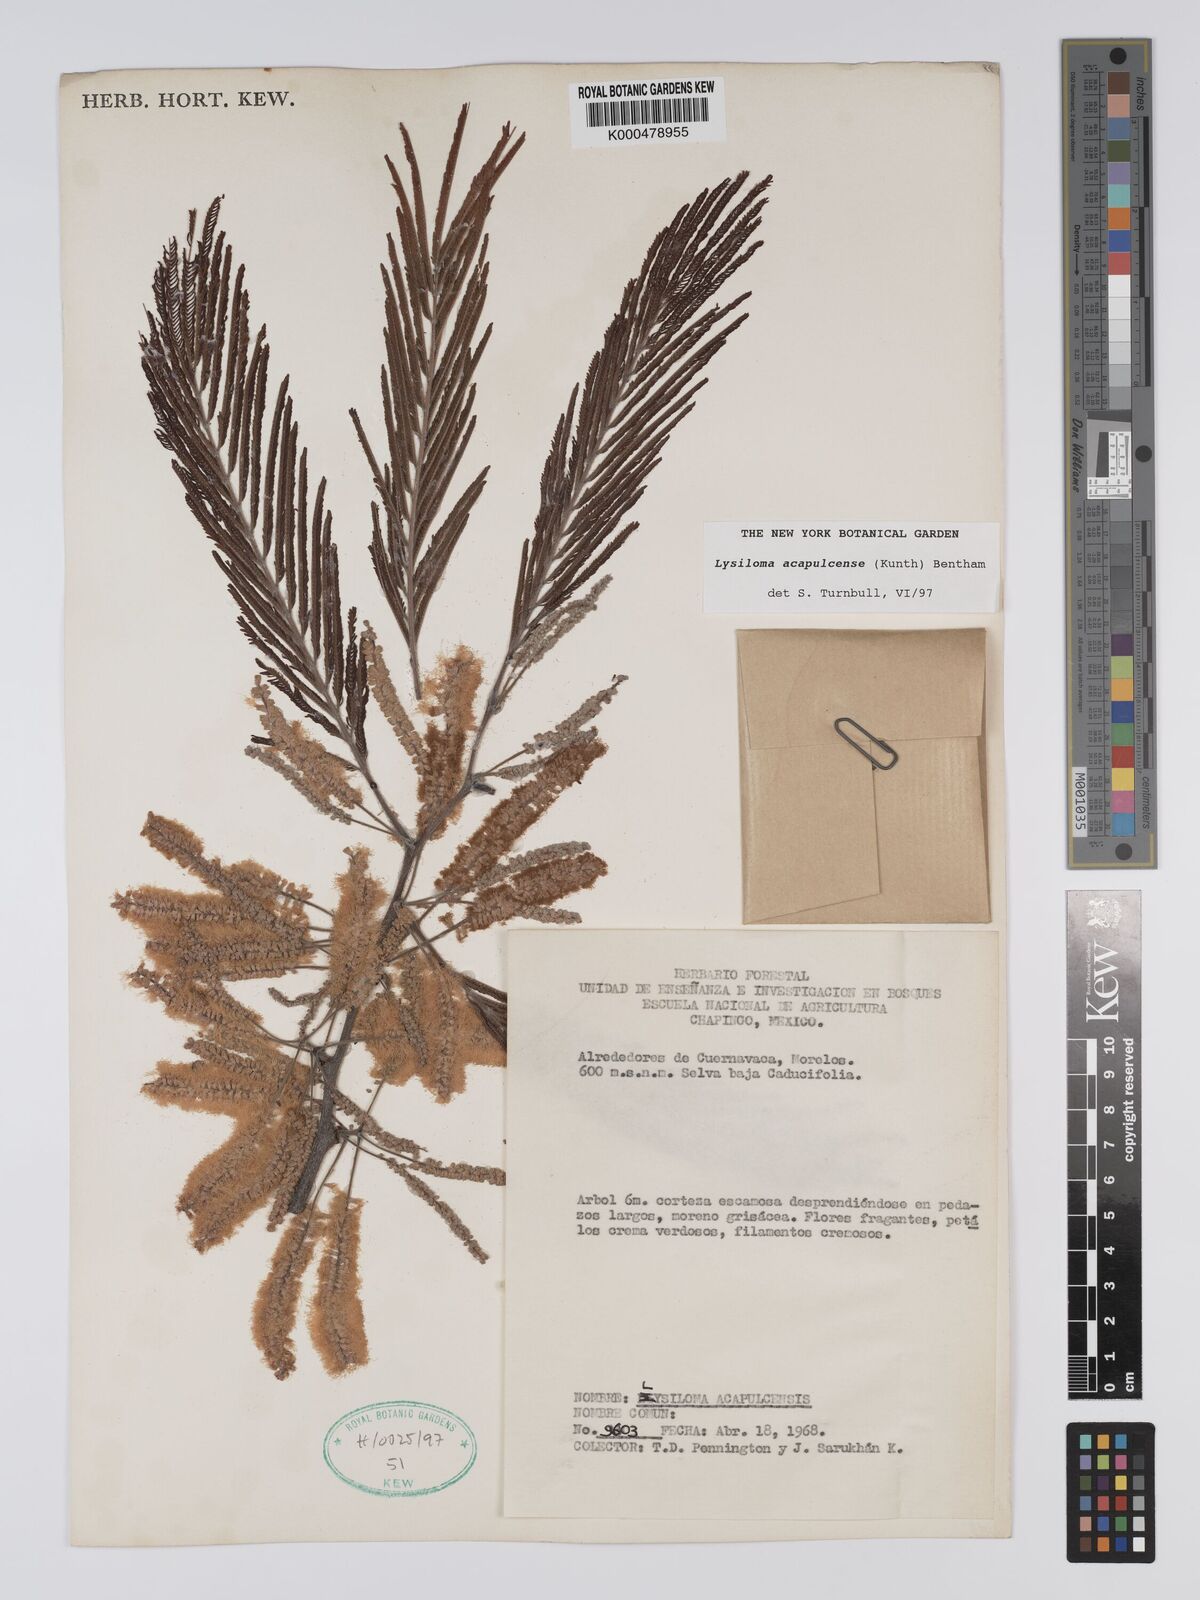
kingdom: Plantae
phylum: Tracheophyta
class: Magnoliopsida
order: Fabales
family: Fabaceae
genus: Lysiloma
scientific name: Lysiloma
